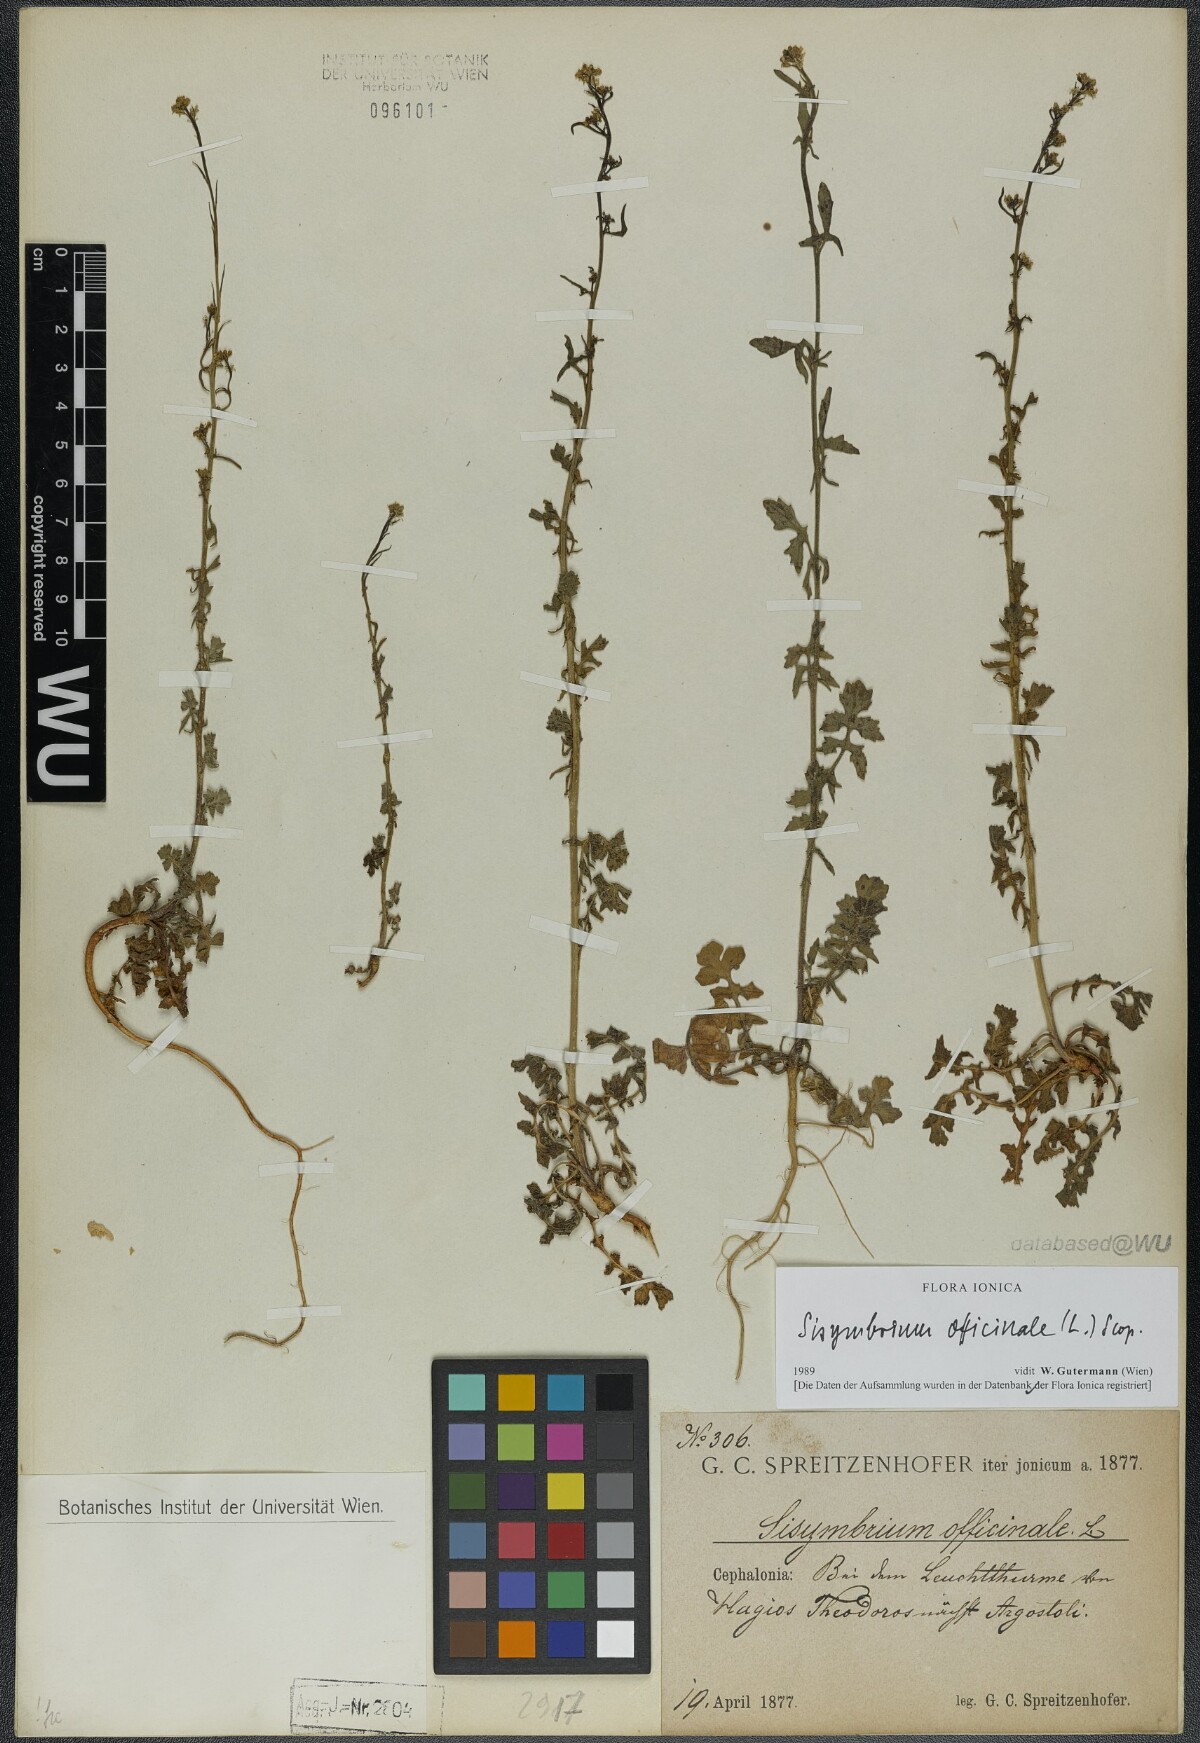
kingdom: Plantae
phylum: Tracheophyta
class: Magnoliopsida
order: Brassicales
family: Brassicaceae
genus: Sisymbrium
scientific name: Sisymbrium officinale
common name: Hedge mustard
